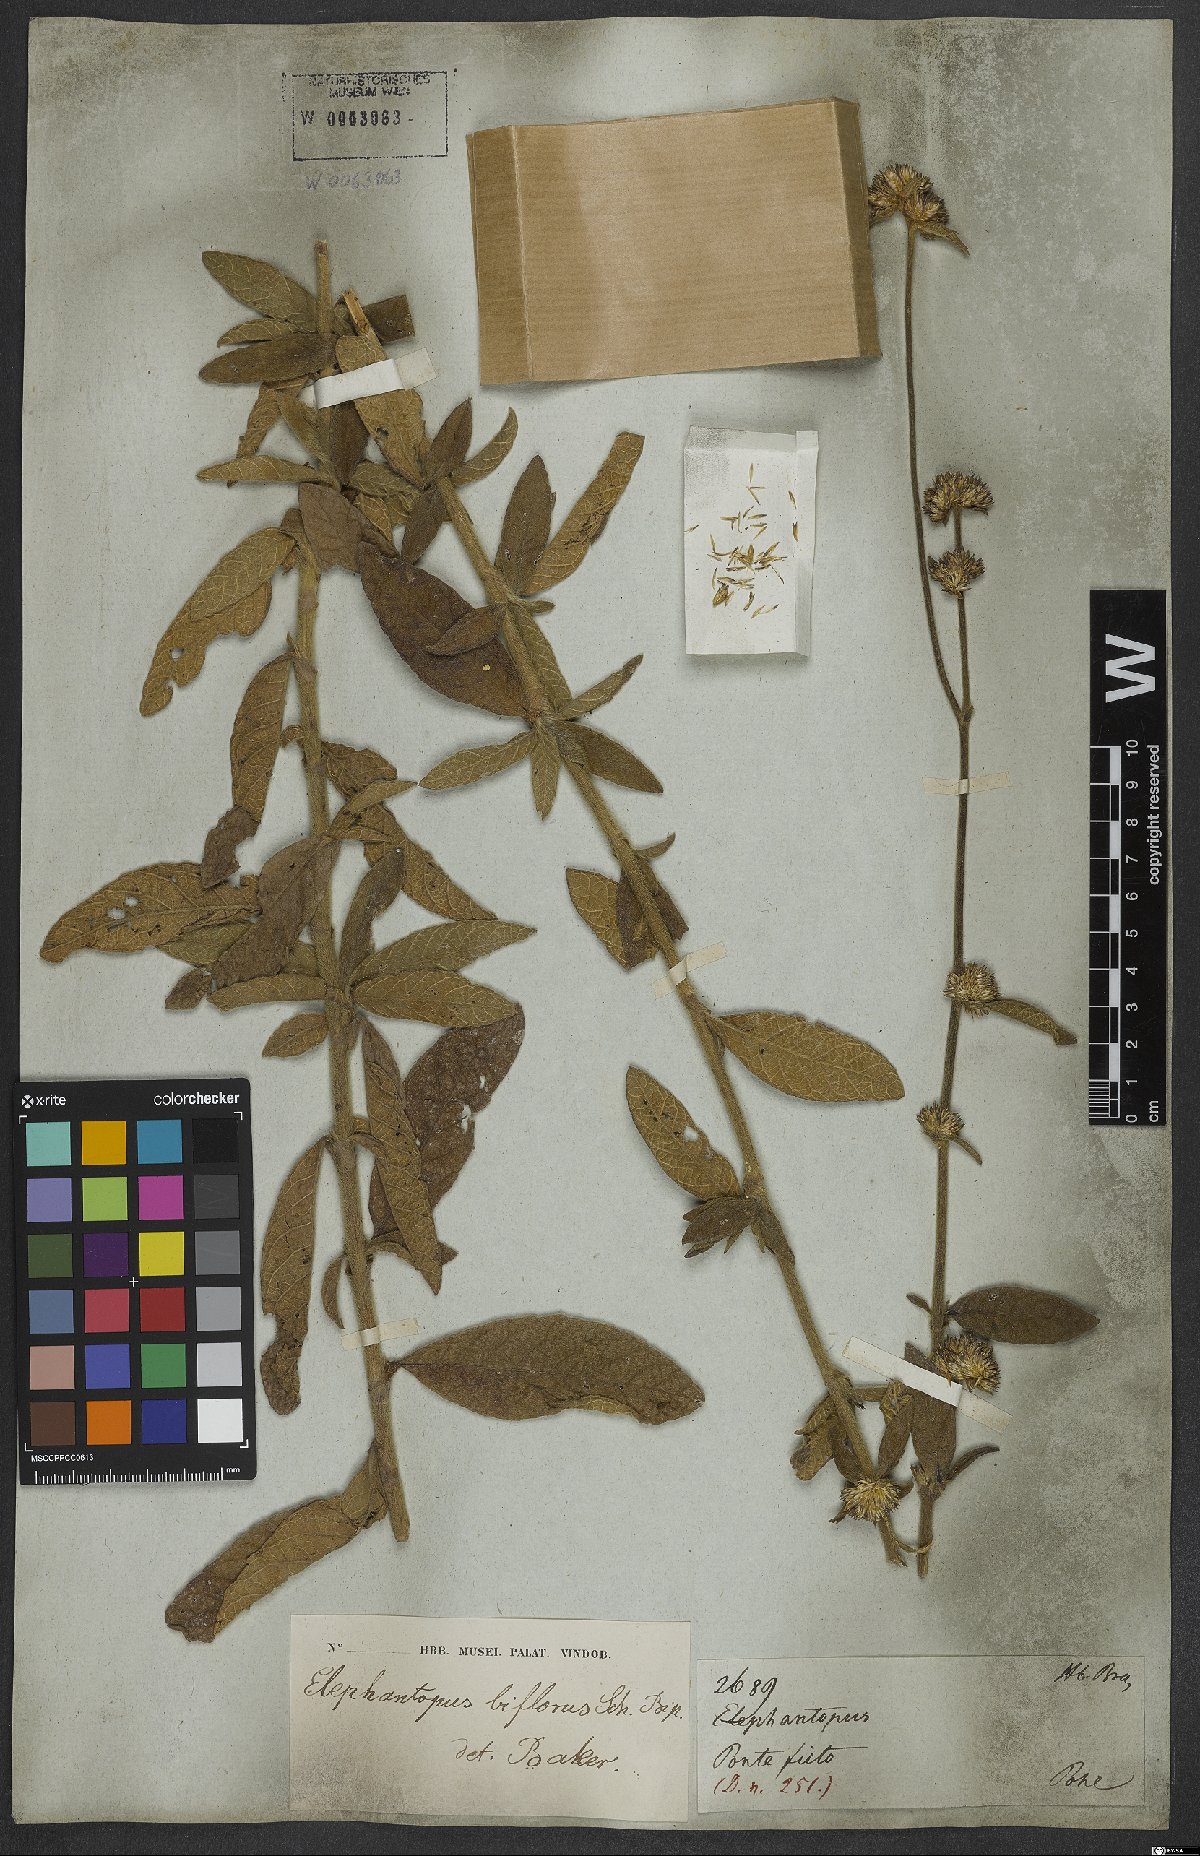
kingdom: Plantae
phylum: Tracheophyta
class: Magnoliopsida
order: Asterales
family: Asteraceae
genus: Elephantopus
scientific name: Elephantopus biflorus
